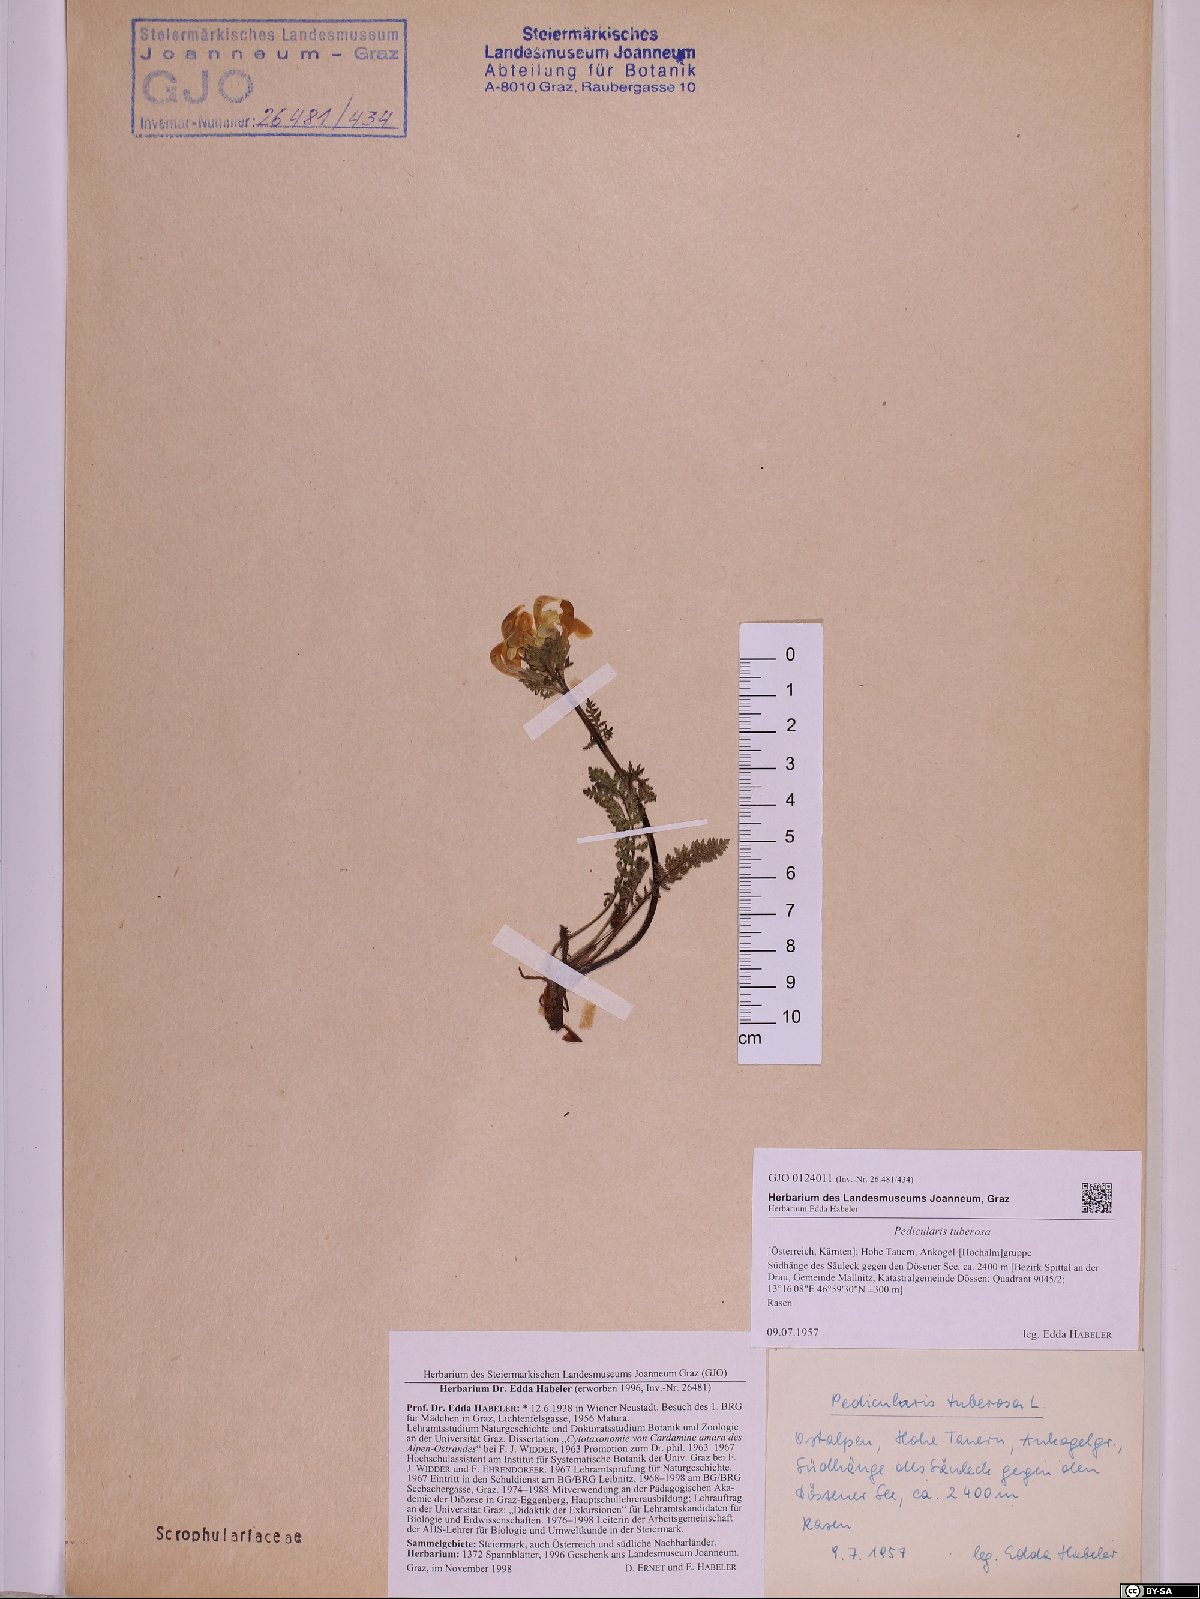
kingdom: Plantae
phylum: Tracheophyta
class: Magnoliopsida
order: Lamiales
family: Orobanchaceae
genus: Pedicularis
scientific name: Pedicularis tuberosa
